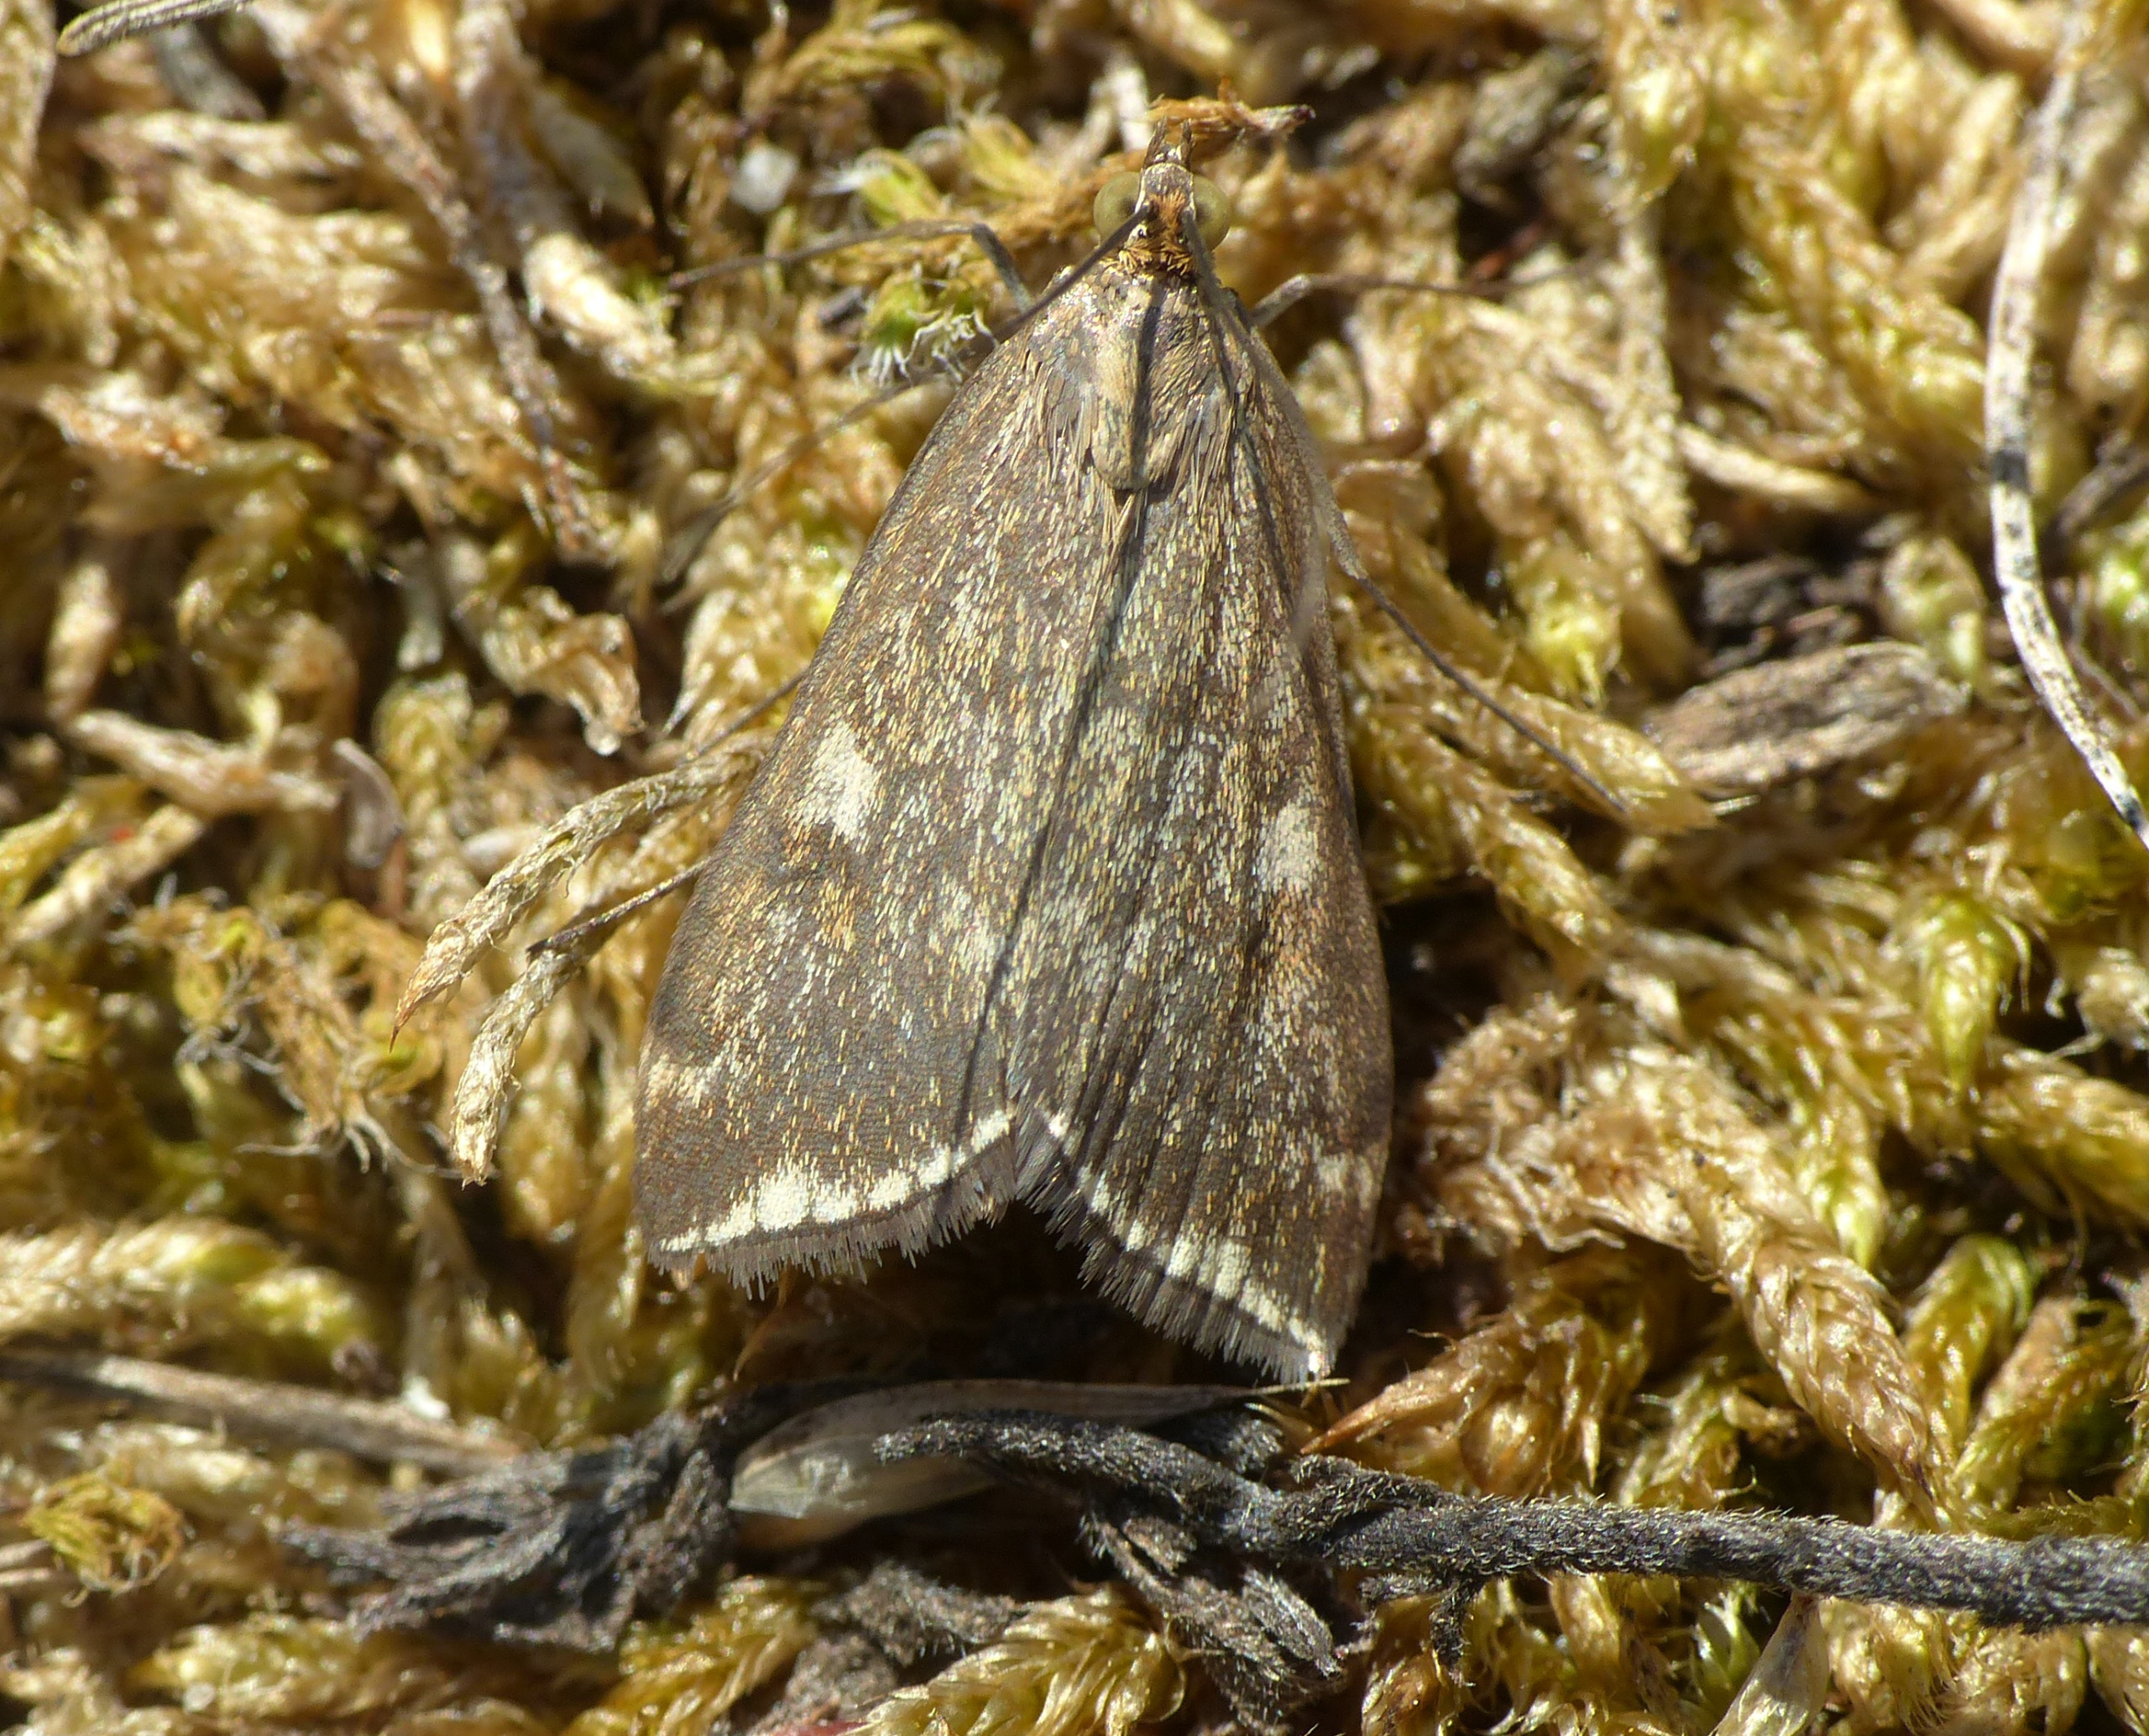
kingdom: Animalia
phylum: Arthropoda
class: Insecta
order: Lepidoptera
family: Crambidae
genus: Loxostege
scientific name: Loxostege sticticalis
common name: Gulstribet halvmøl
